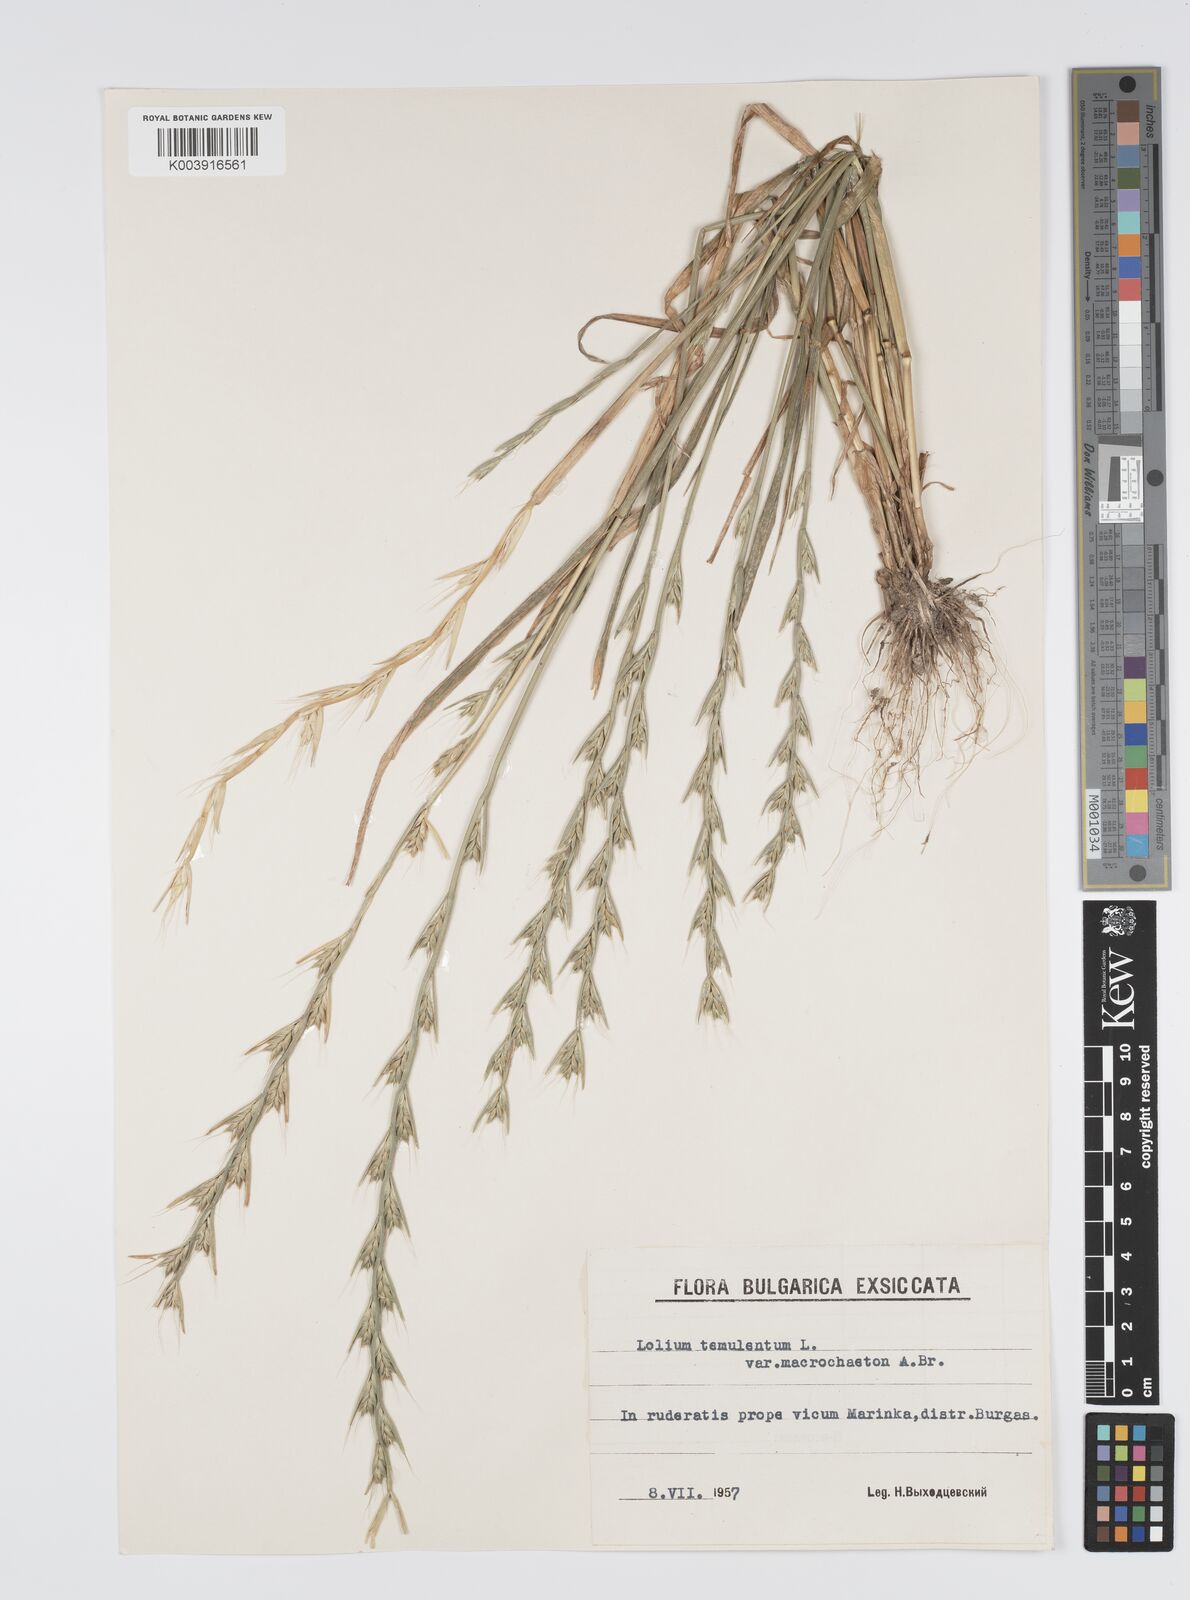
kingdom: Plantae
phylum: Tracheophyta
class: Liliopsida
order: Poales
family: Poaceae
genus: Lolium
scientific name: Lolium temulentum
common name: Darnel
